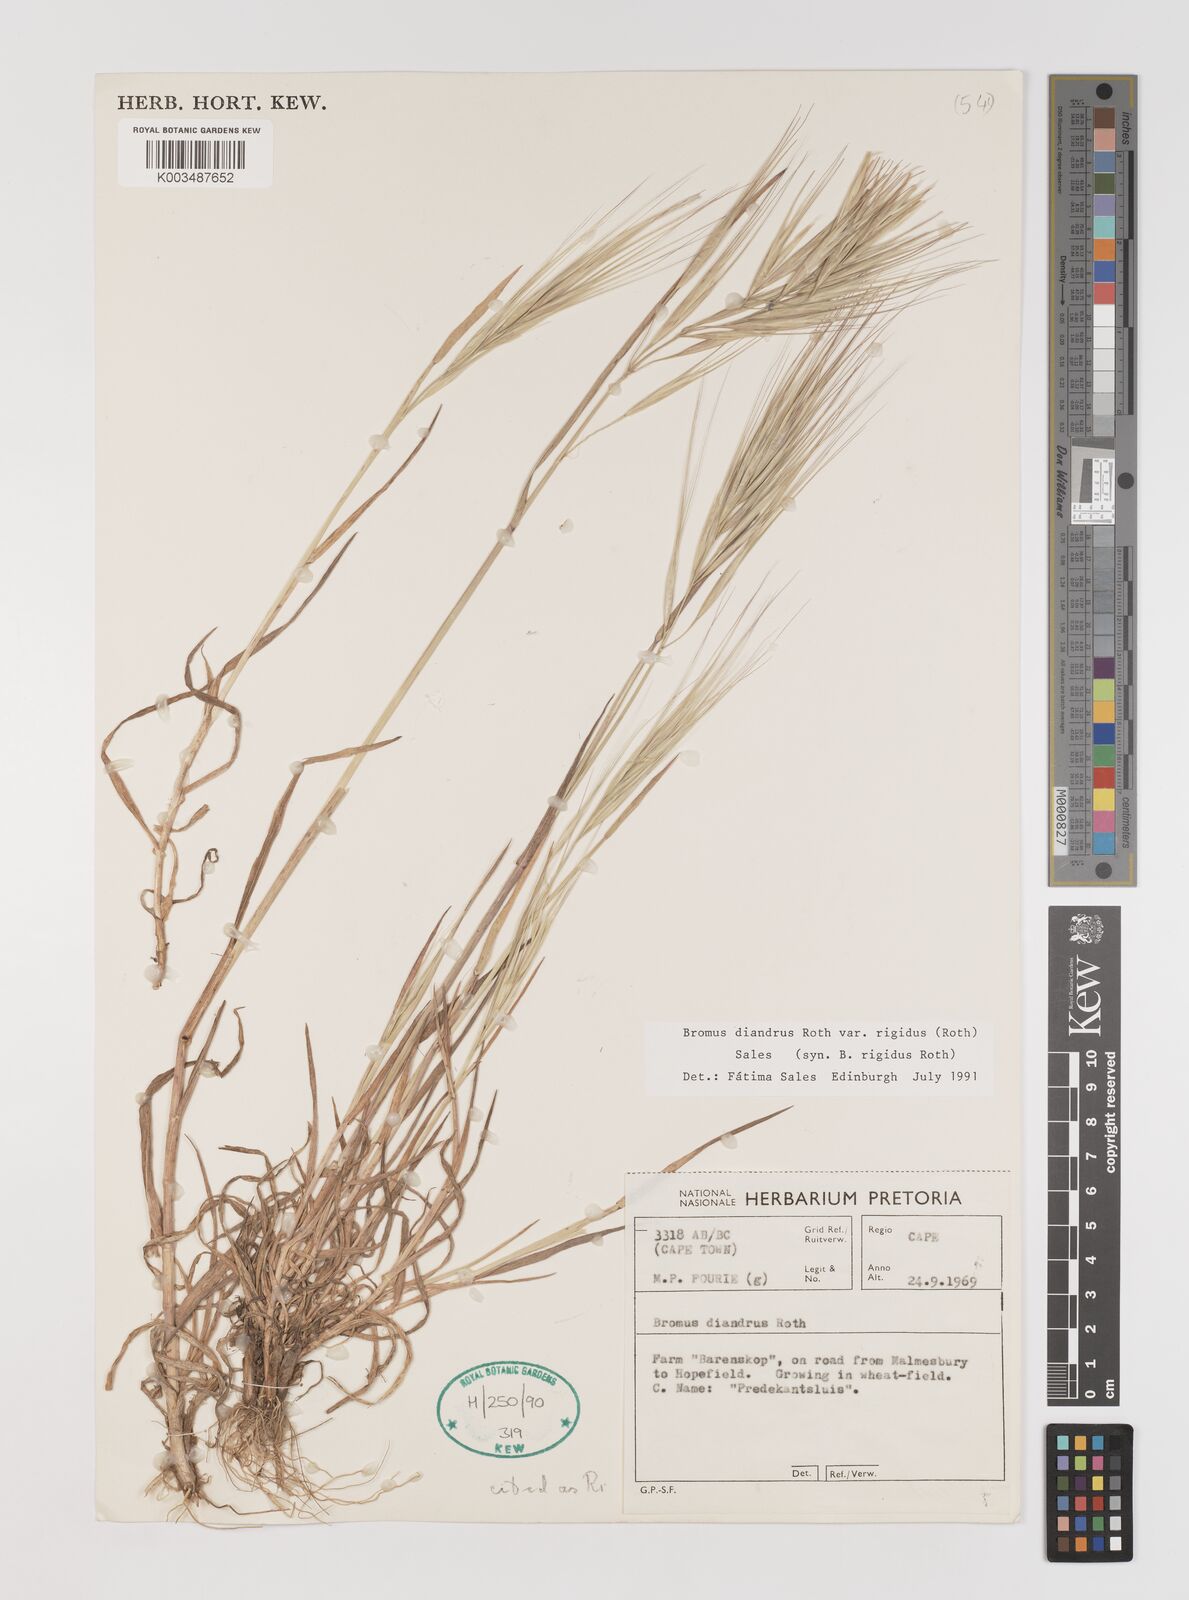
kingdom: Plantae
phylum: Tracheophyta
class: Liliopsida
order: Poales
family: Poaceae
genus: Bromus
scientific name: Bromus diandrus
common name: Ripgut brome
